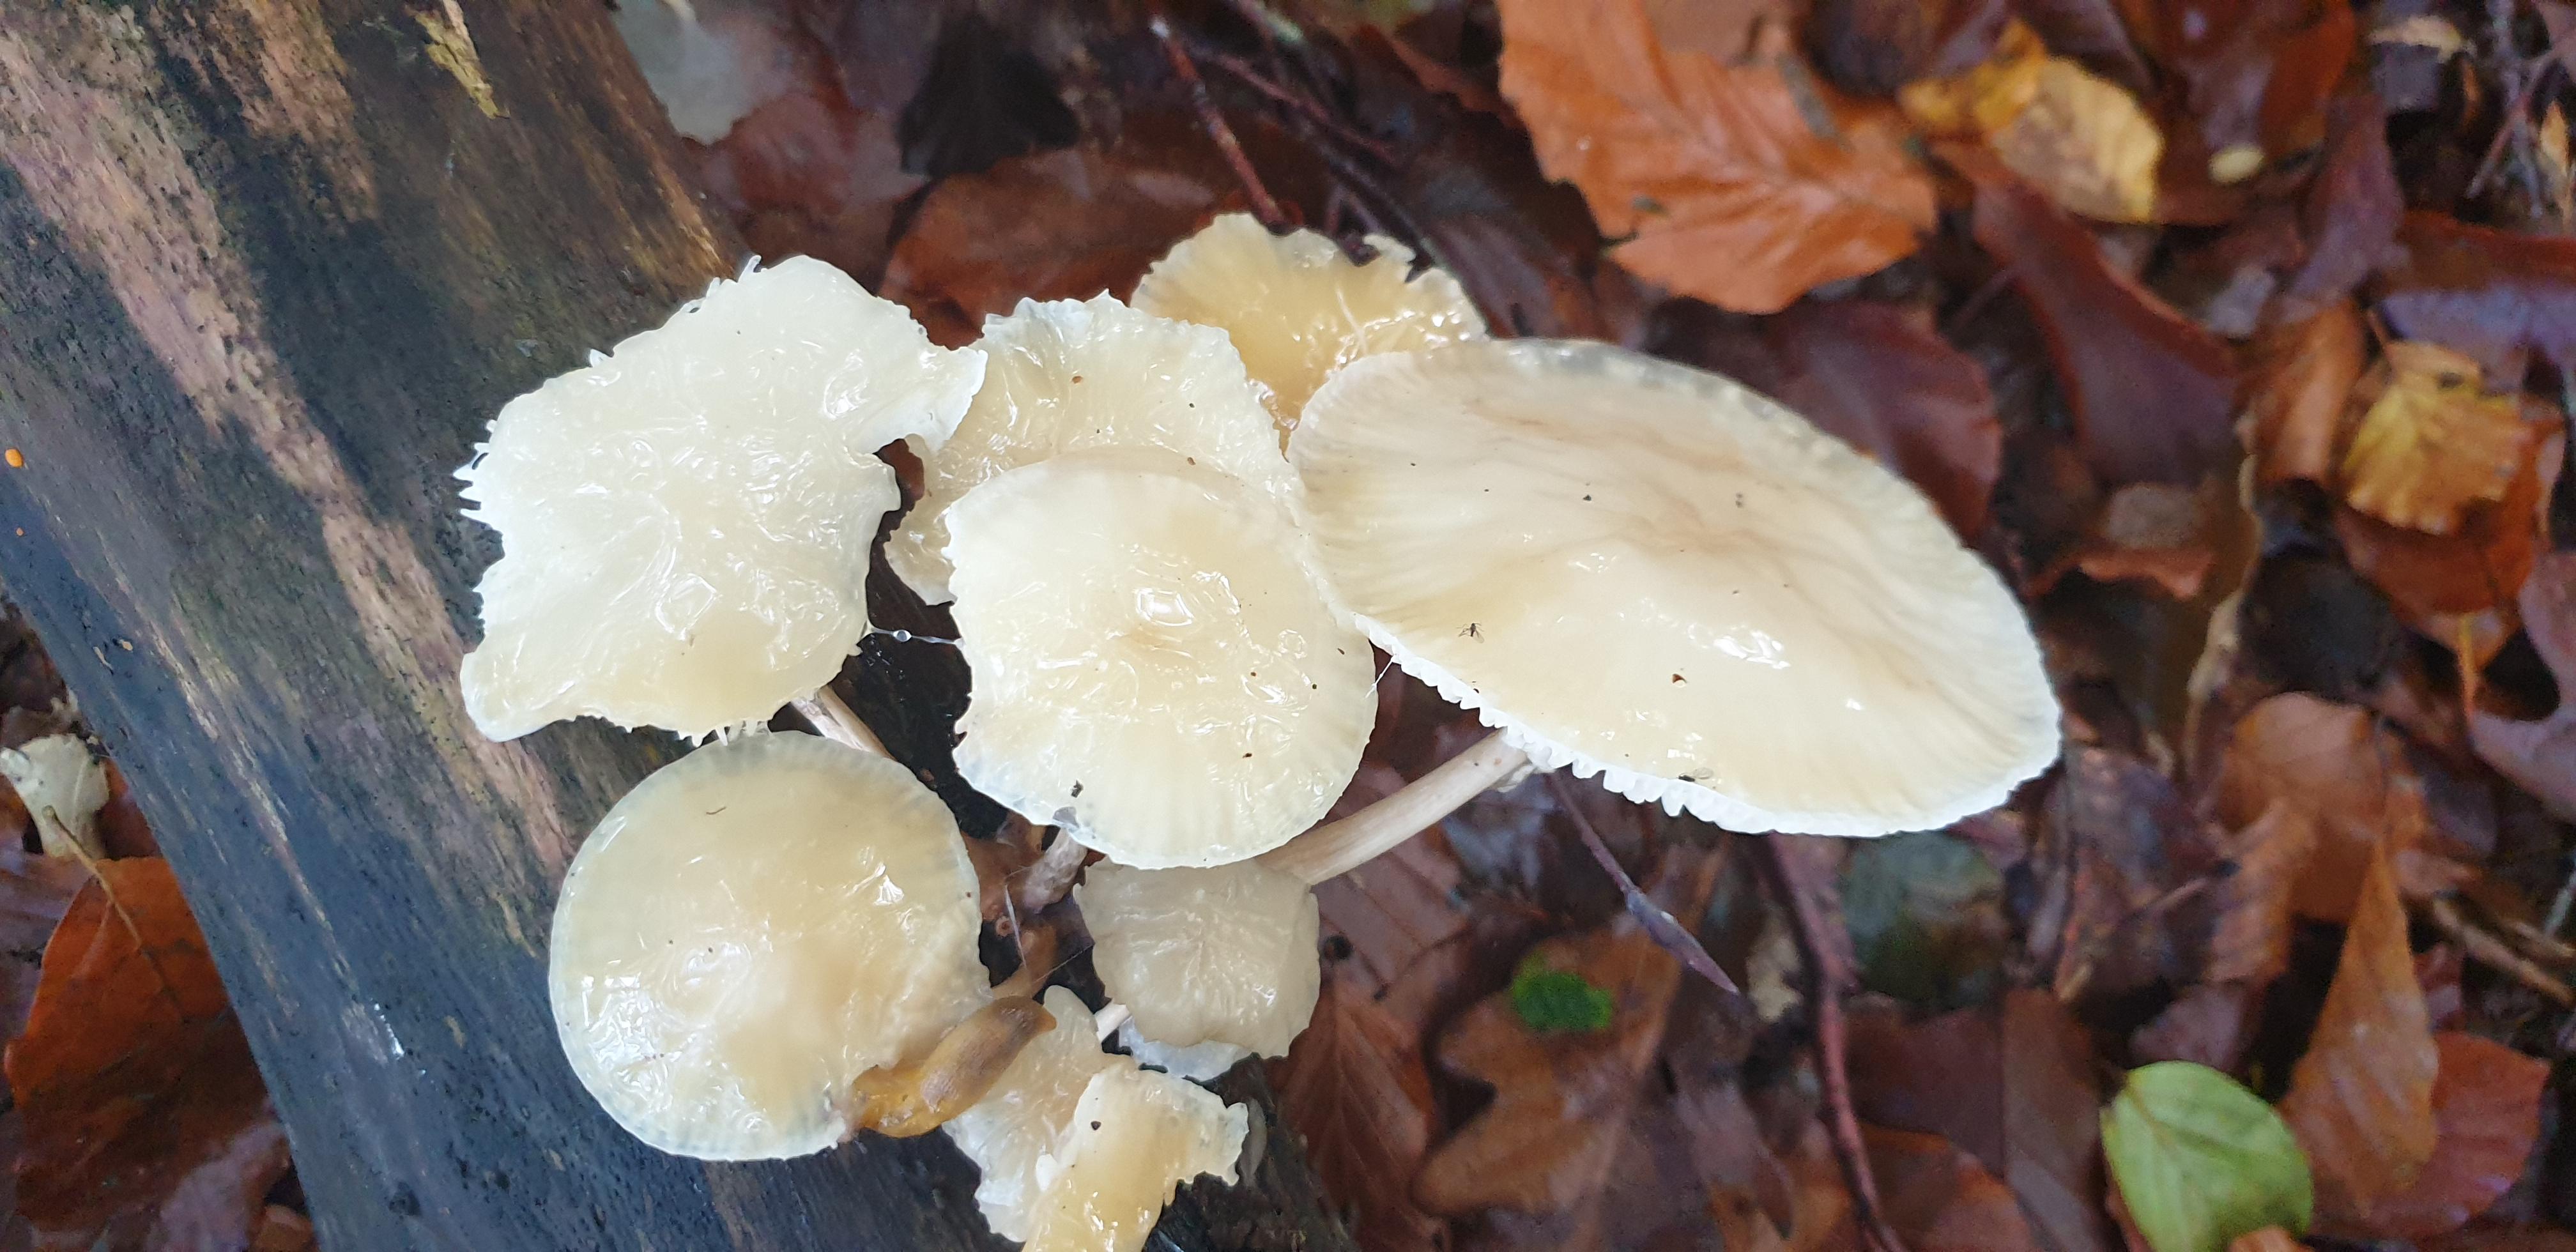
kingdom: Fungi
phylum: Basidiomycota
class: Agaricomycetes
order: Agaricales
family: Physalacriaceae
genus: Mucidula
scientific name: Mucidula mucida
